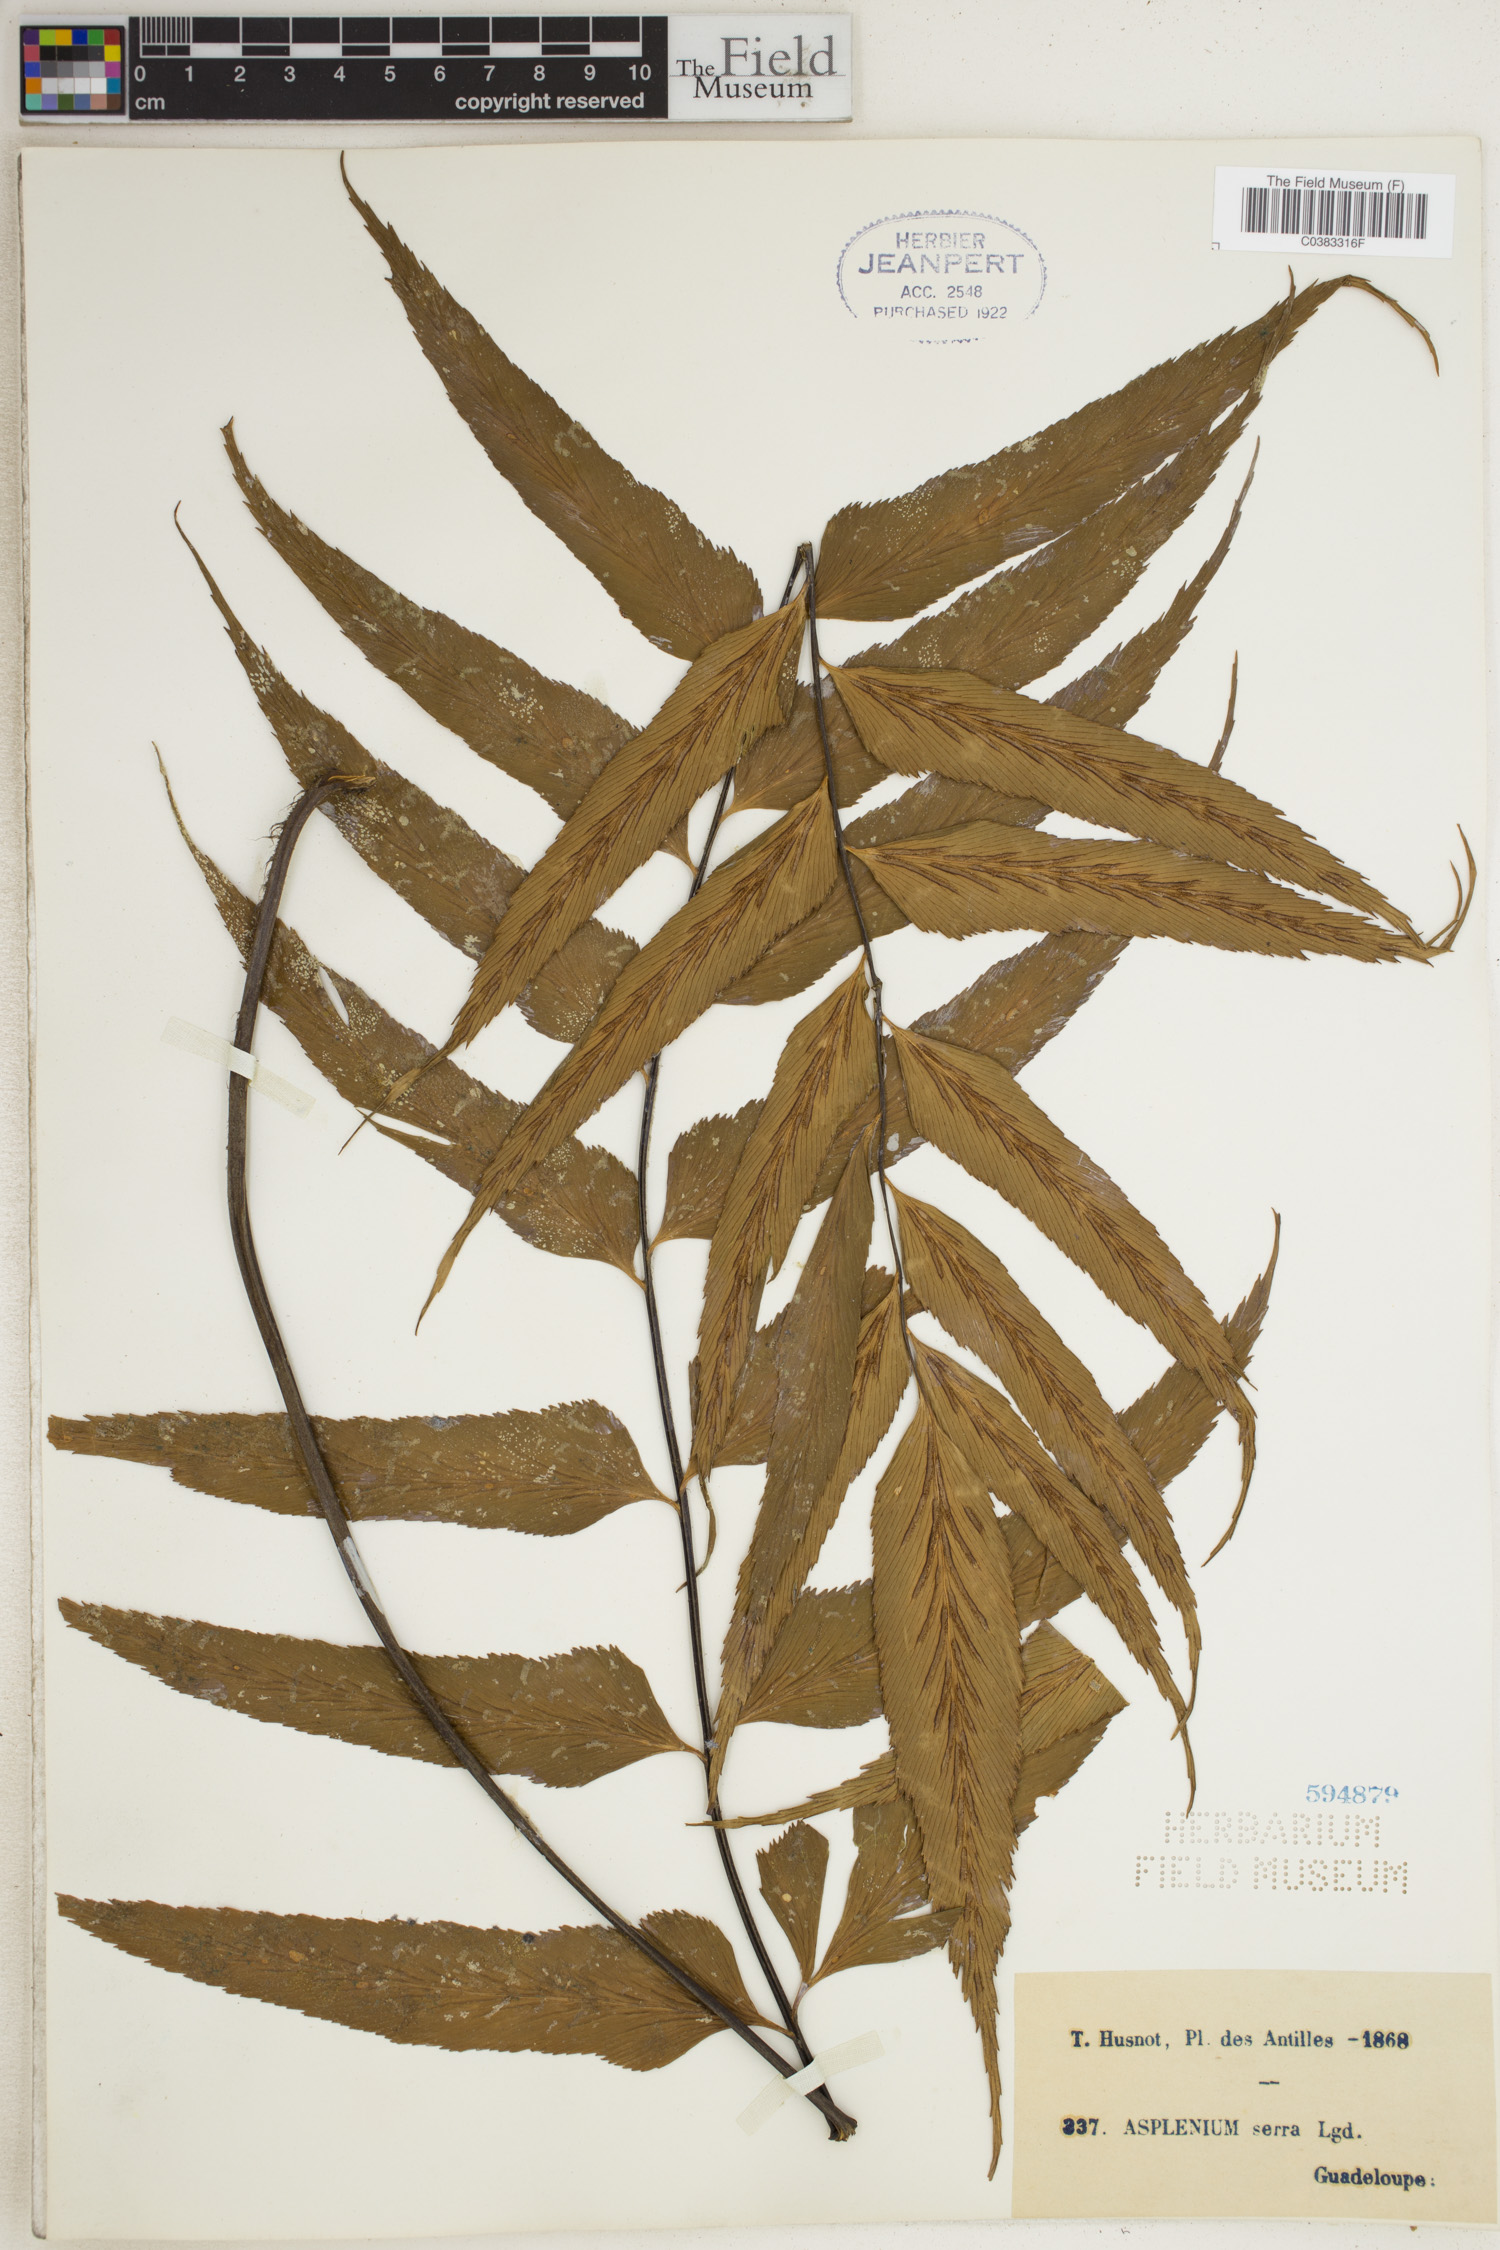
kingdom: Plantae
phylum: Tracheophyta
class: Polypodiopsida
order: Polypodiales
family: Aspleniaceae
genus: Asplenium
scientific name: Asplenium serra
